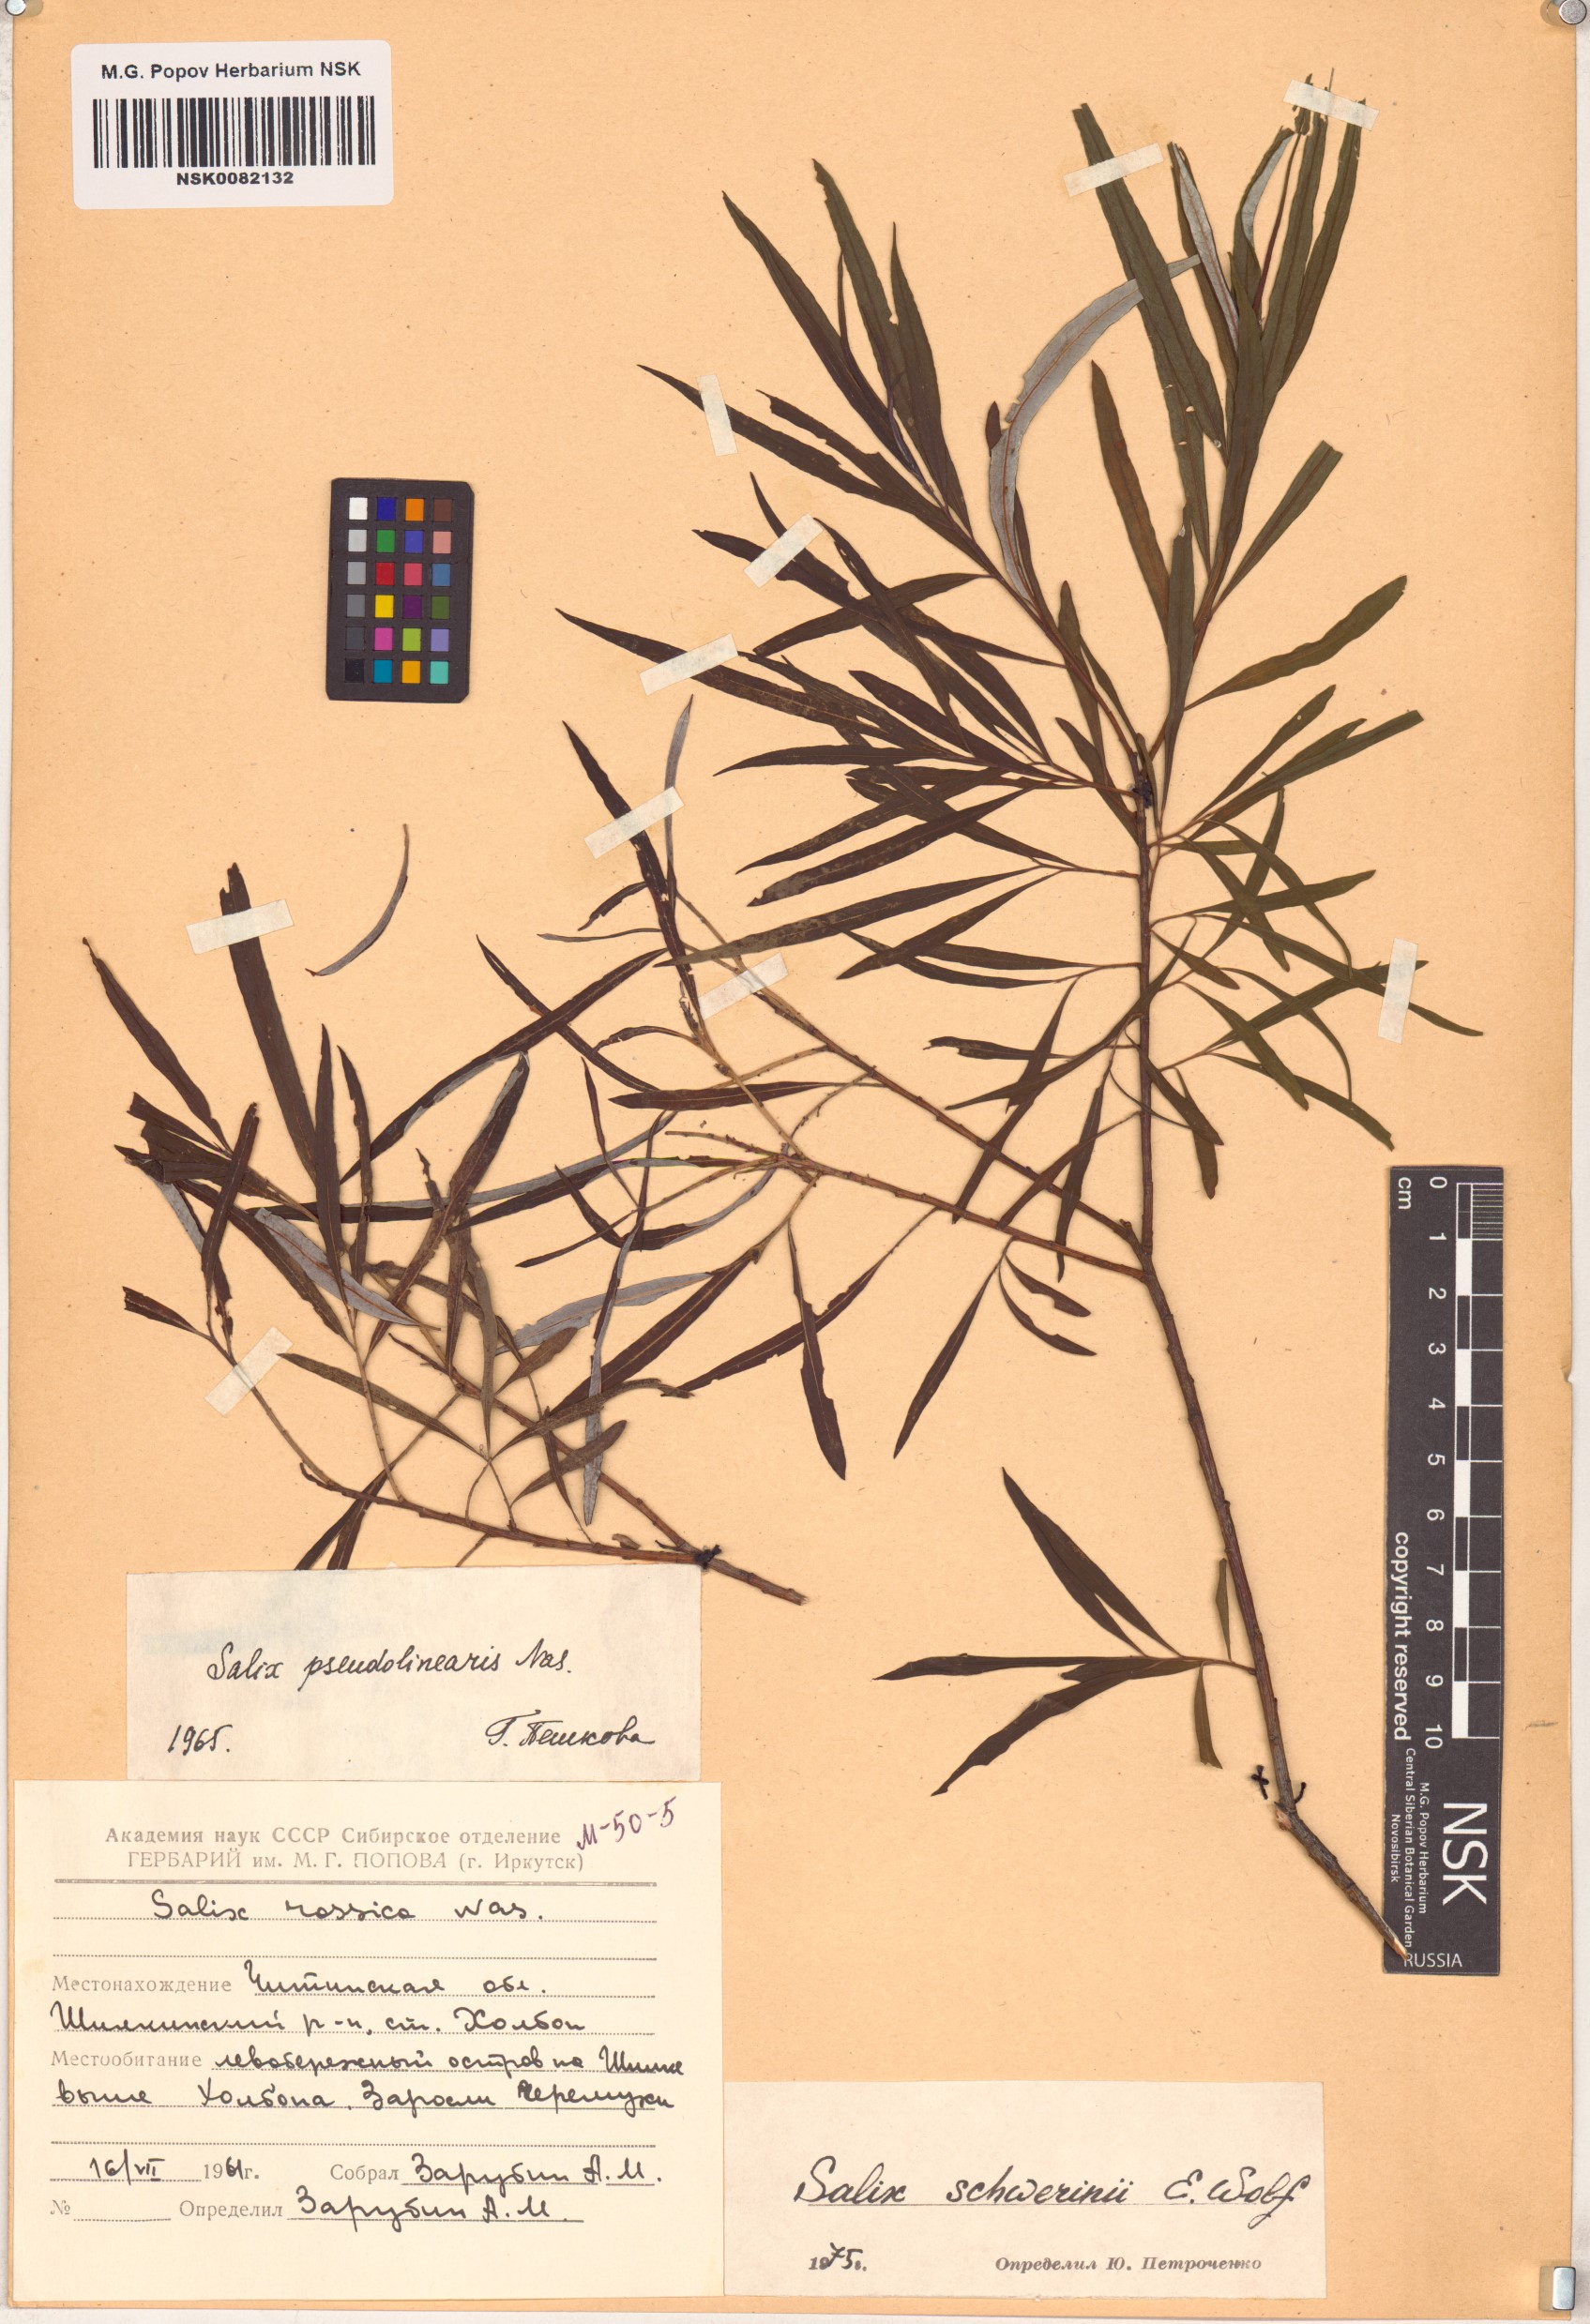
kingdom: Plantae
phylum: Tracheophyta
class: Magnoliopsida
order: Malpighiales
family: Salicaceae
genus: Salix
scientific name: Salix schwerinii
